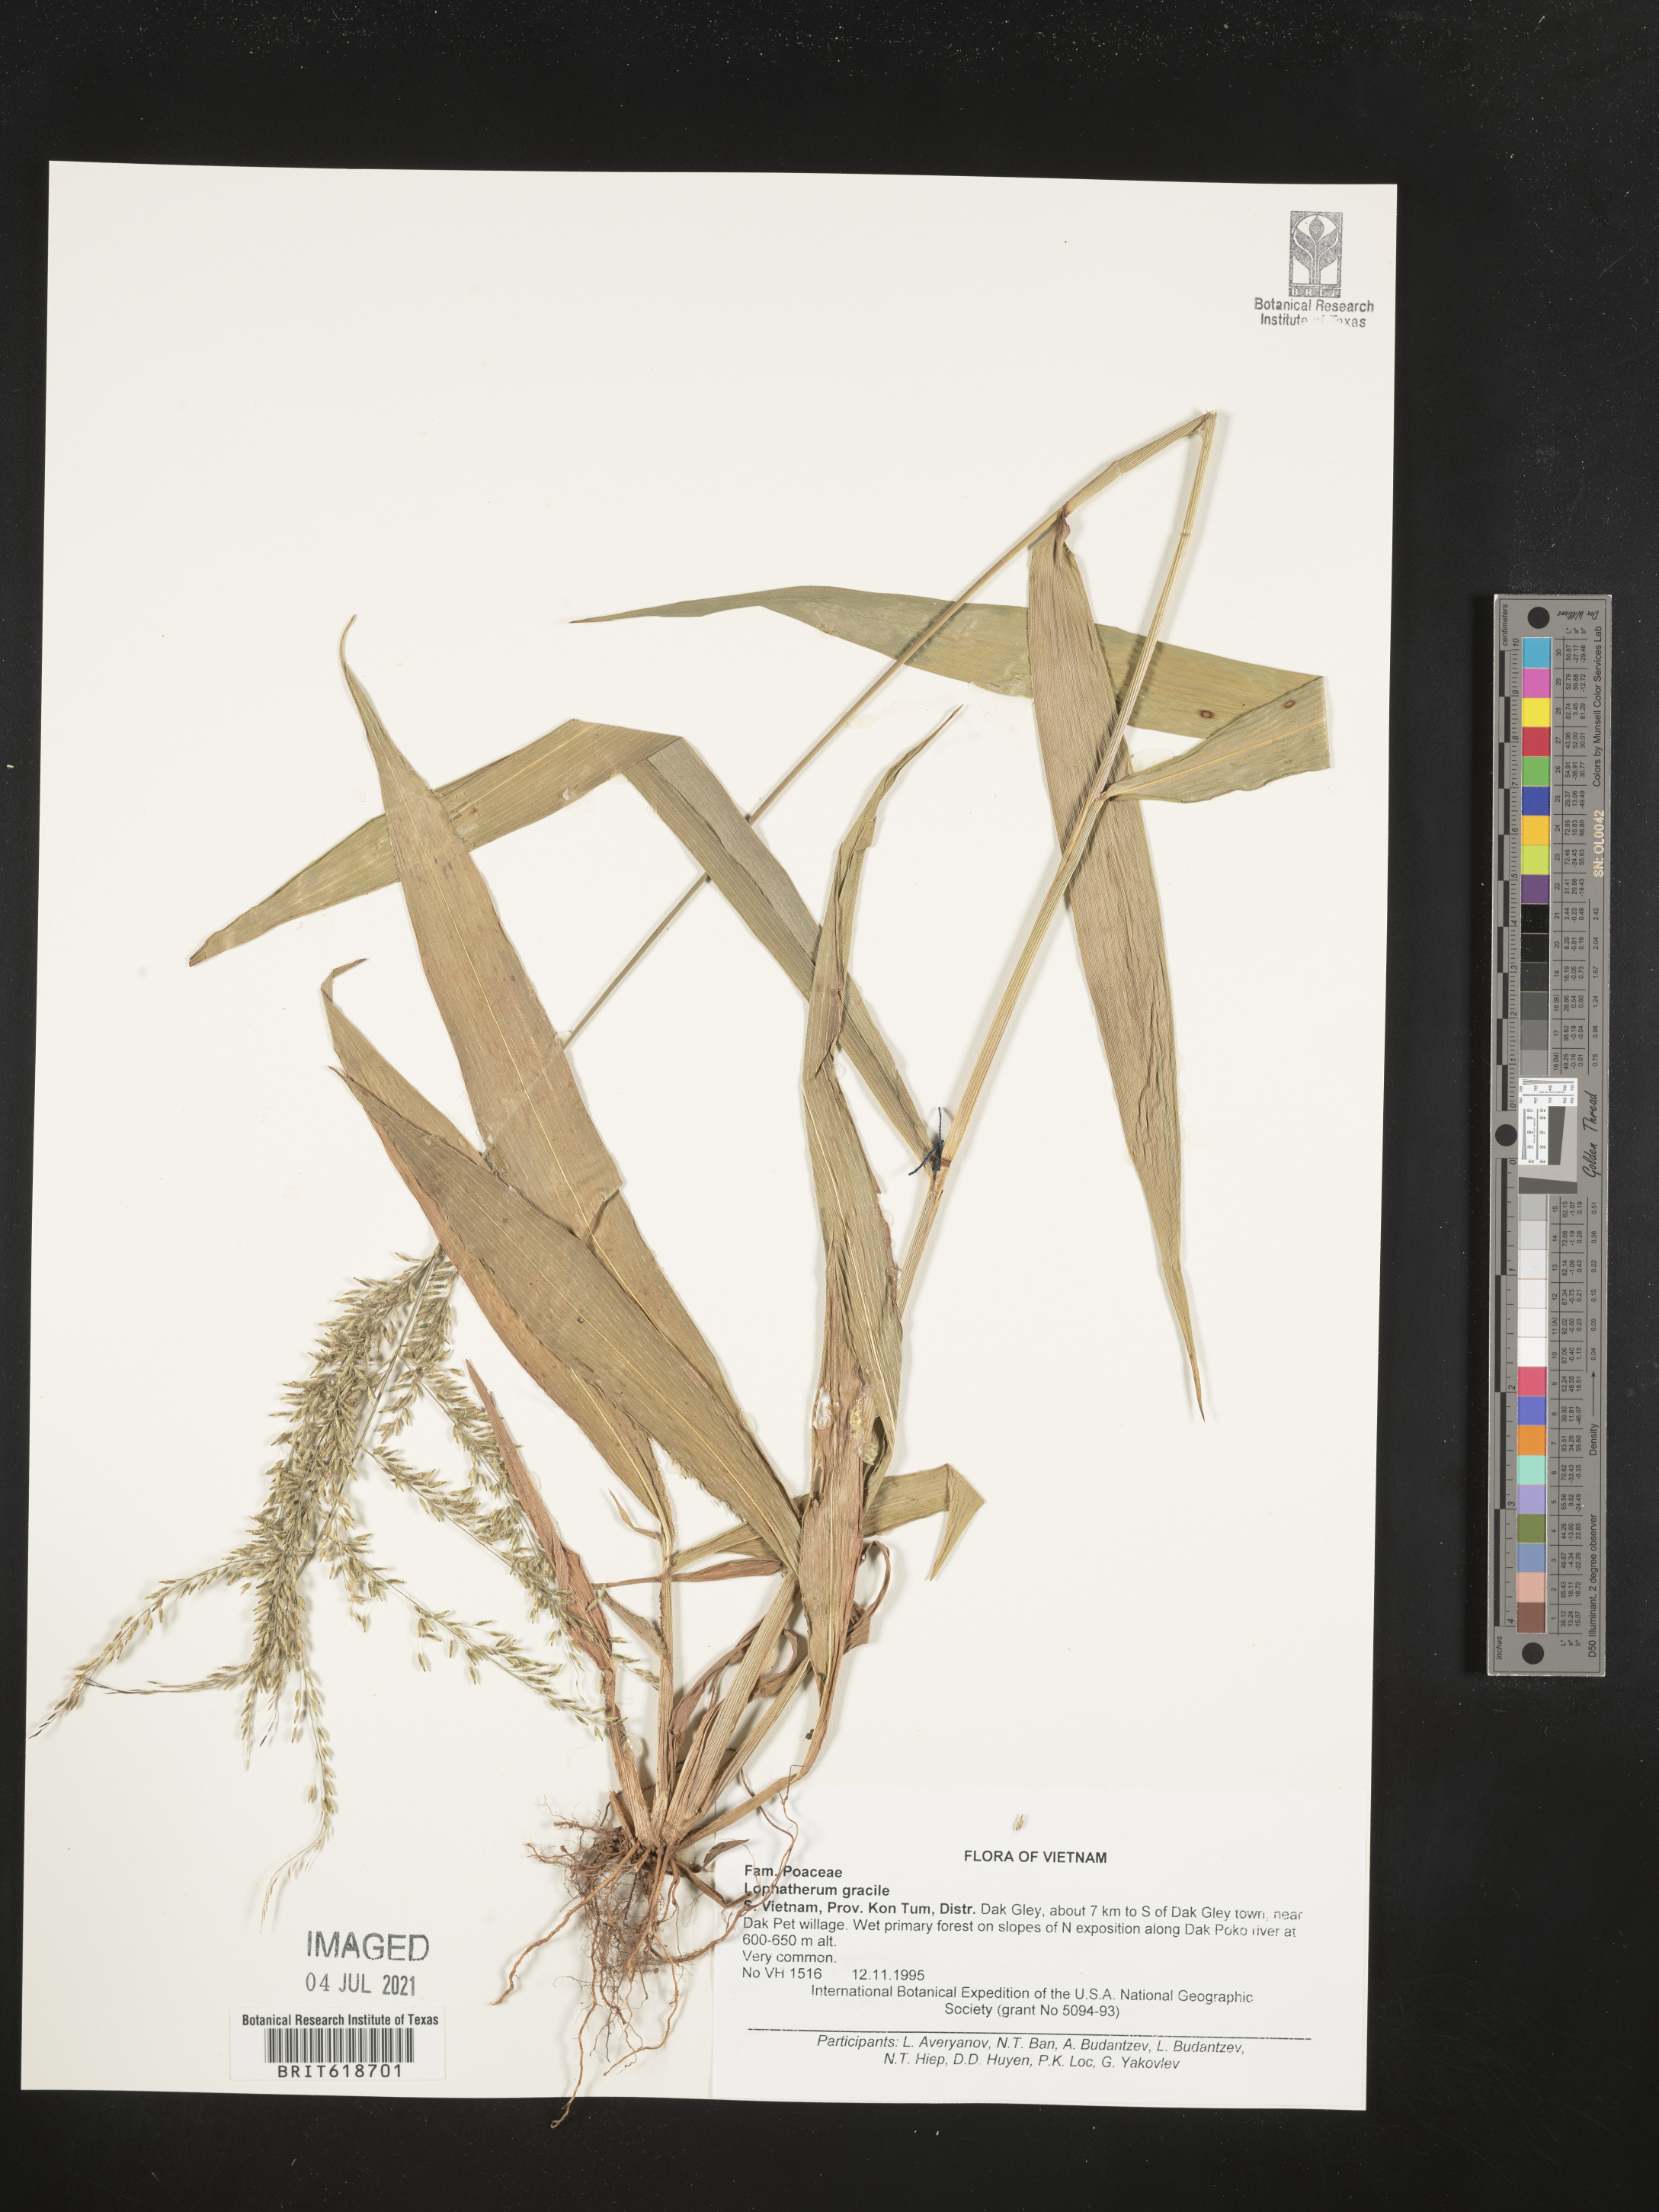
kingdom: Plantae
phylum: Tracheophyta
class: Liliopsida
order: Poales
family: Poaceae
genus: Lophatherum
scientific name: Lophatherum gracile
